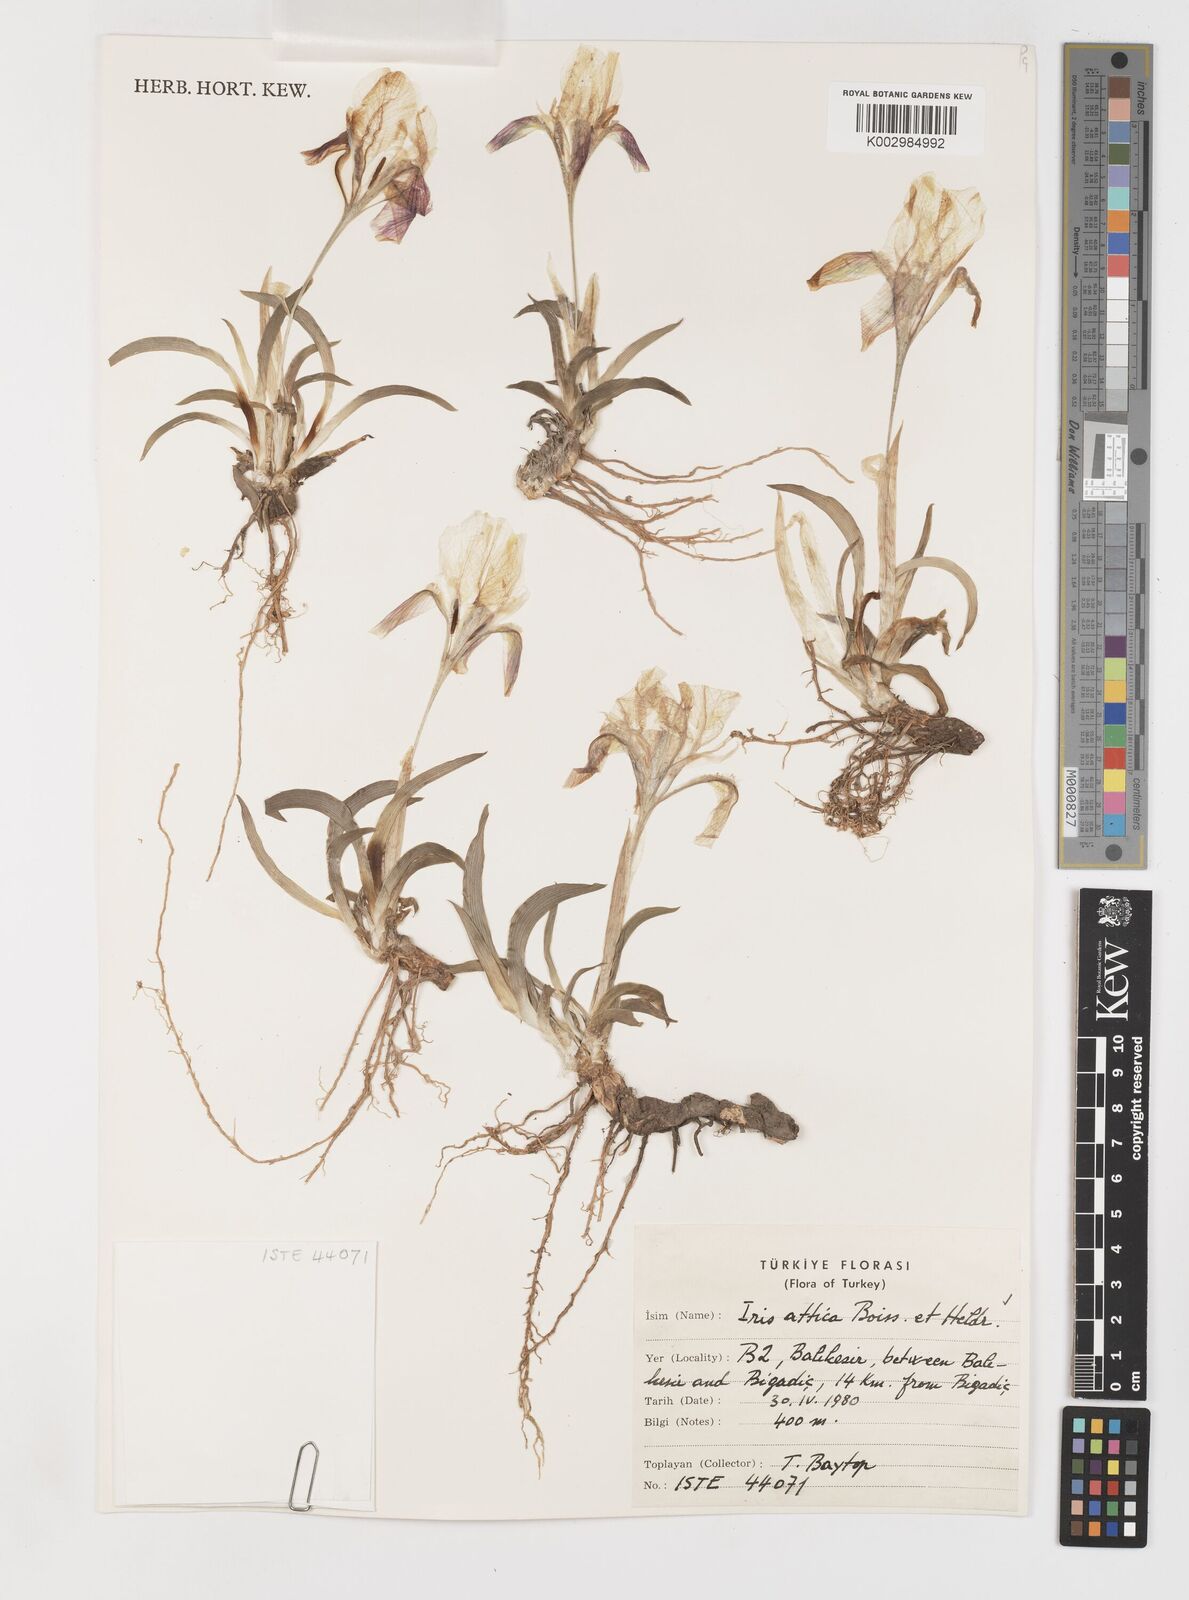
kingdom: Plantae
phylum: Tracheophyta
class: Liliopsida
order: Asparagales
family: Iridaceae
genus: Iris
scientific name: Iris pumila
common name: Dwarf iris
